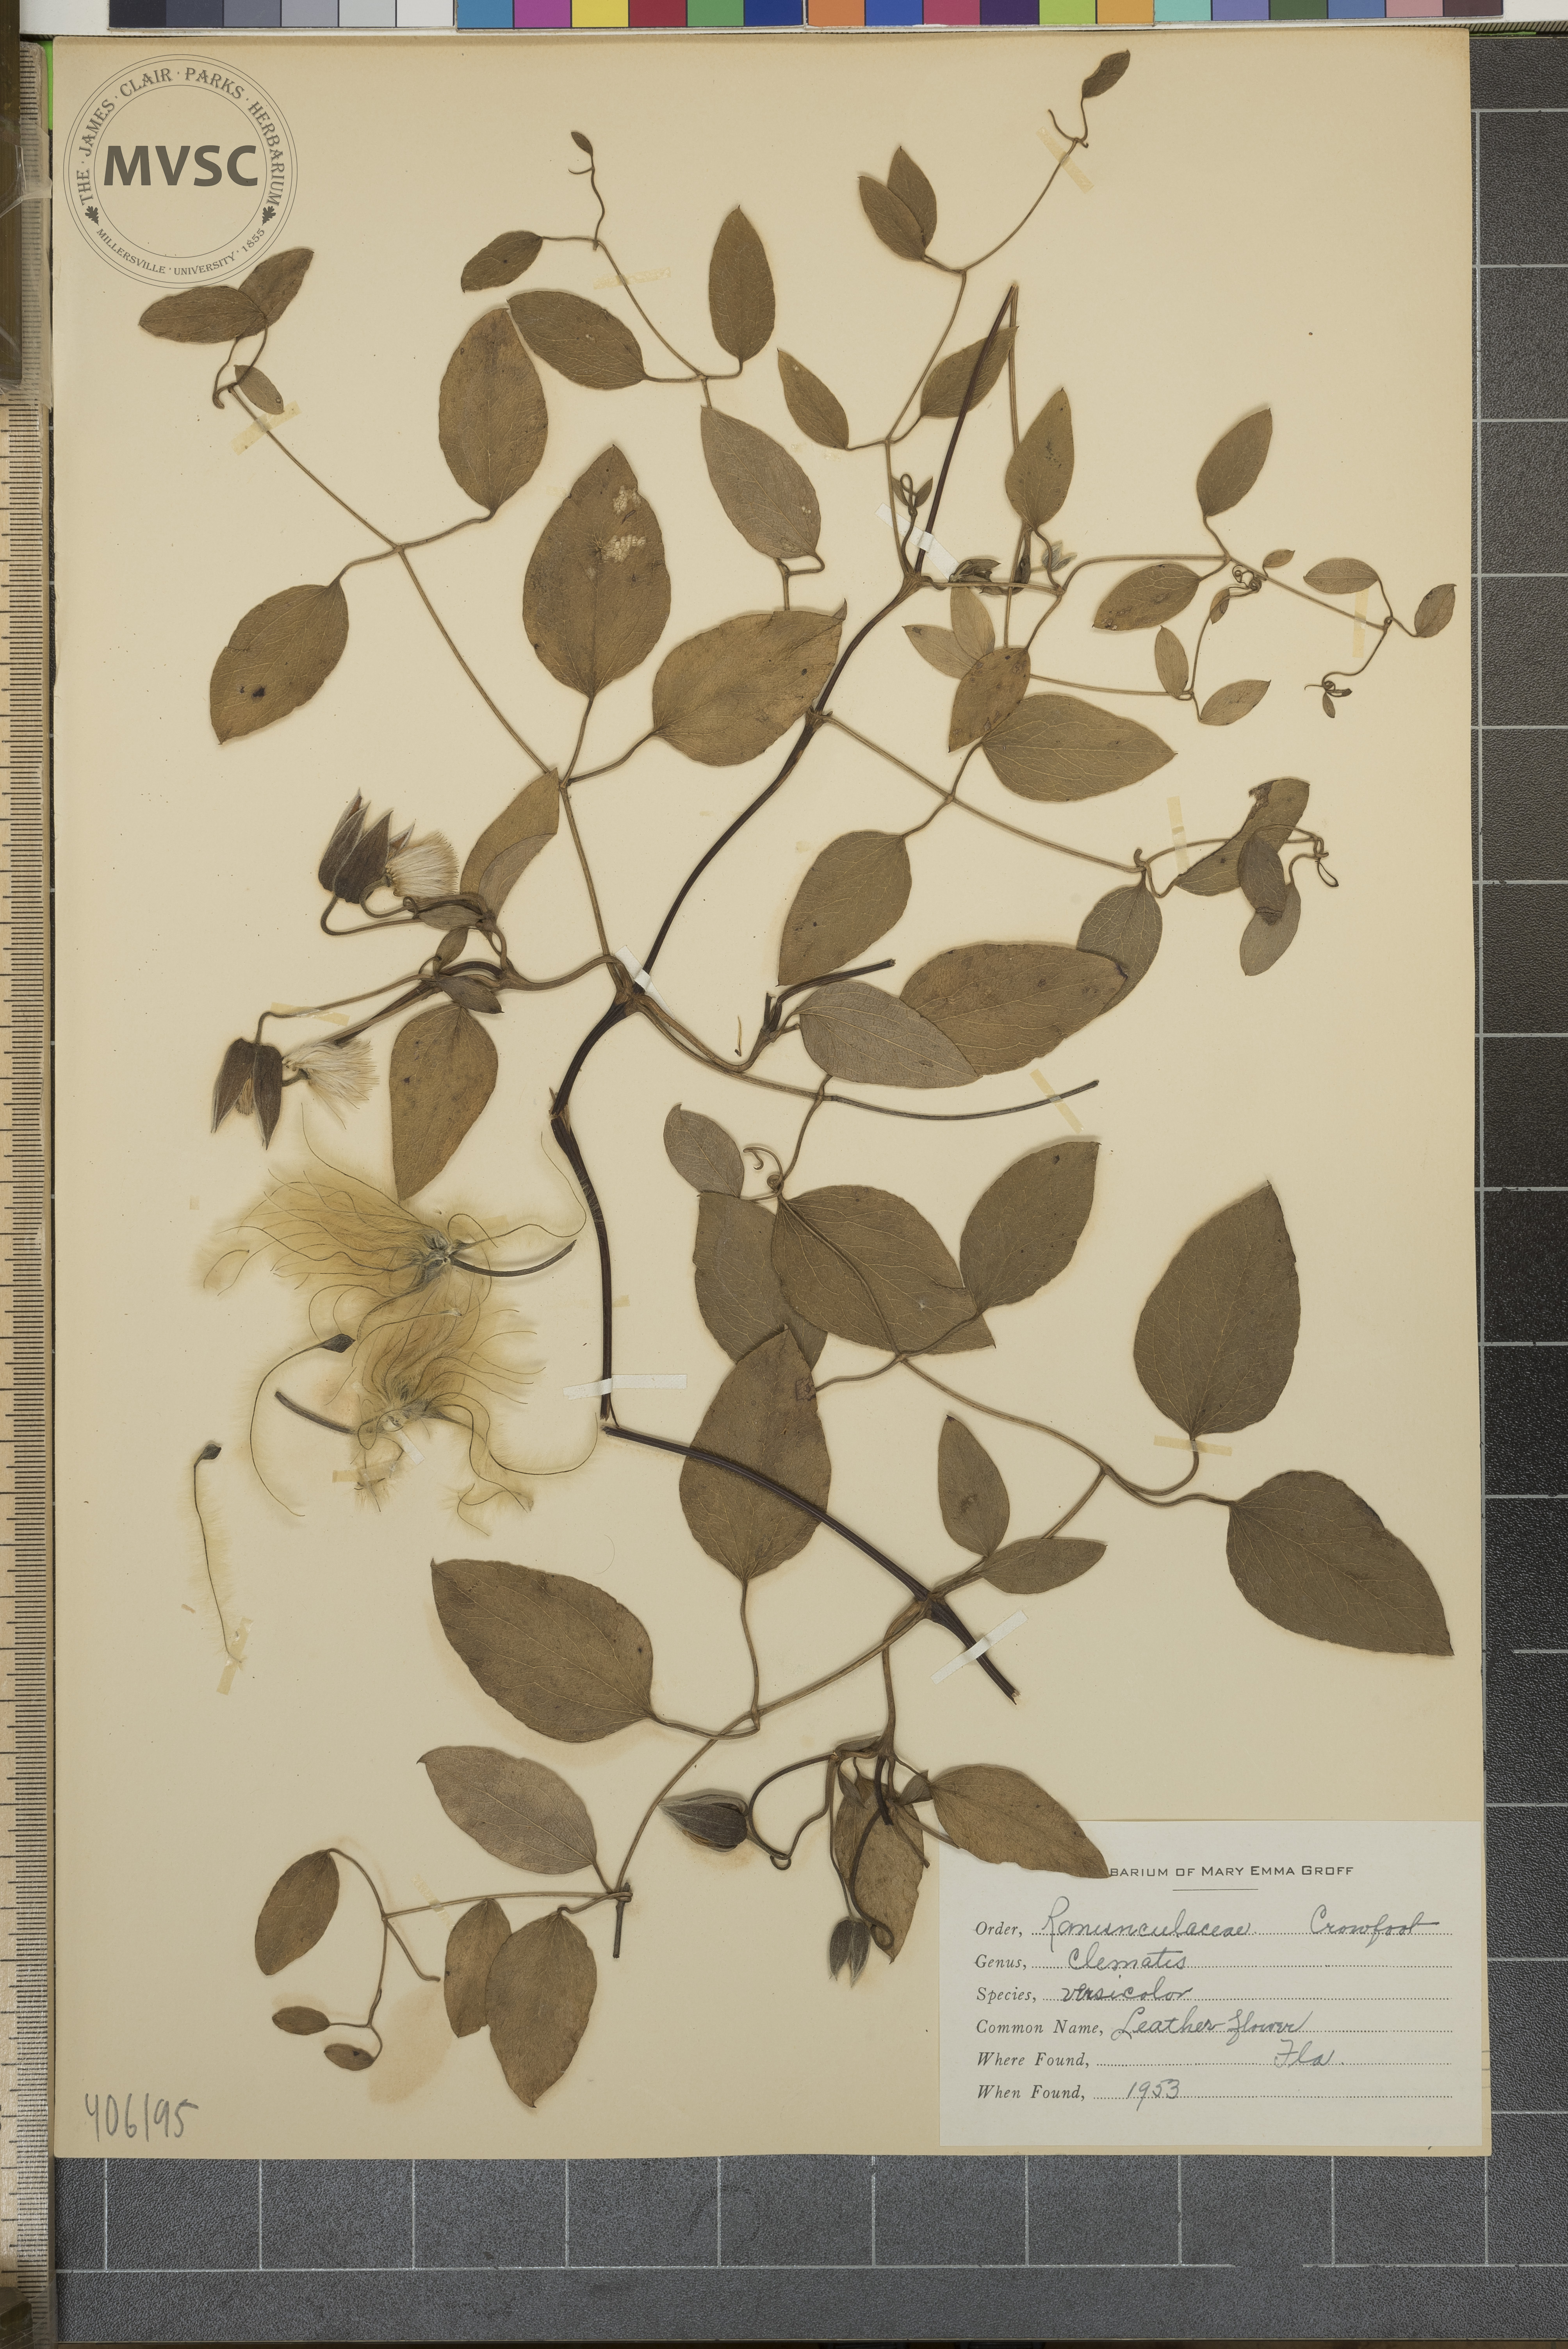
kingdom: Plantae
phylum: Tracheophyta
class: Magnoliopsida
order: Ranunculales
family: Ranunculaceae
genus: Clematis
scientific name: Clematis reticulata
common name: Leather flower
